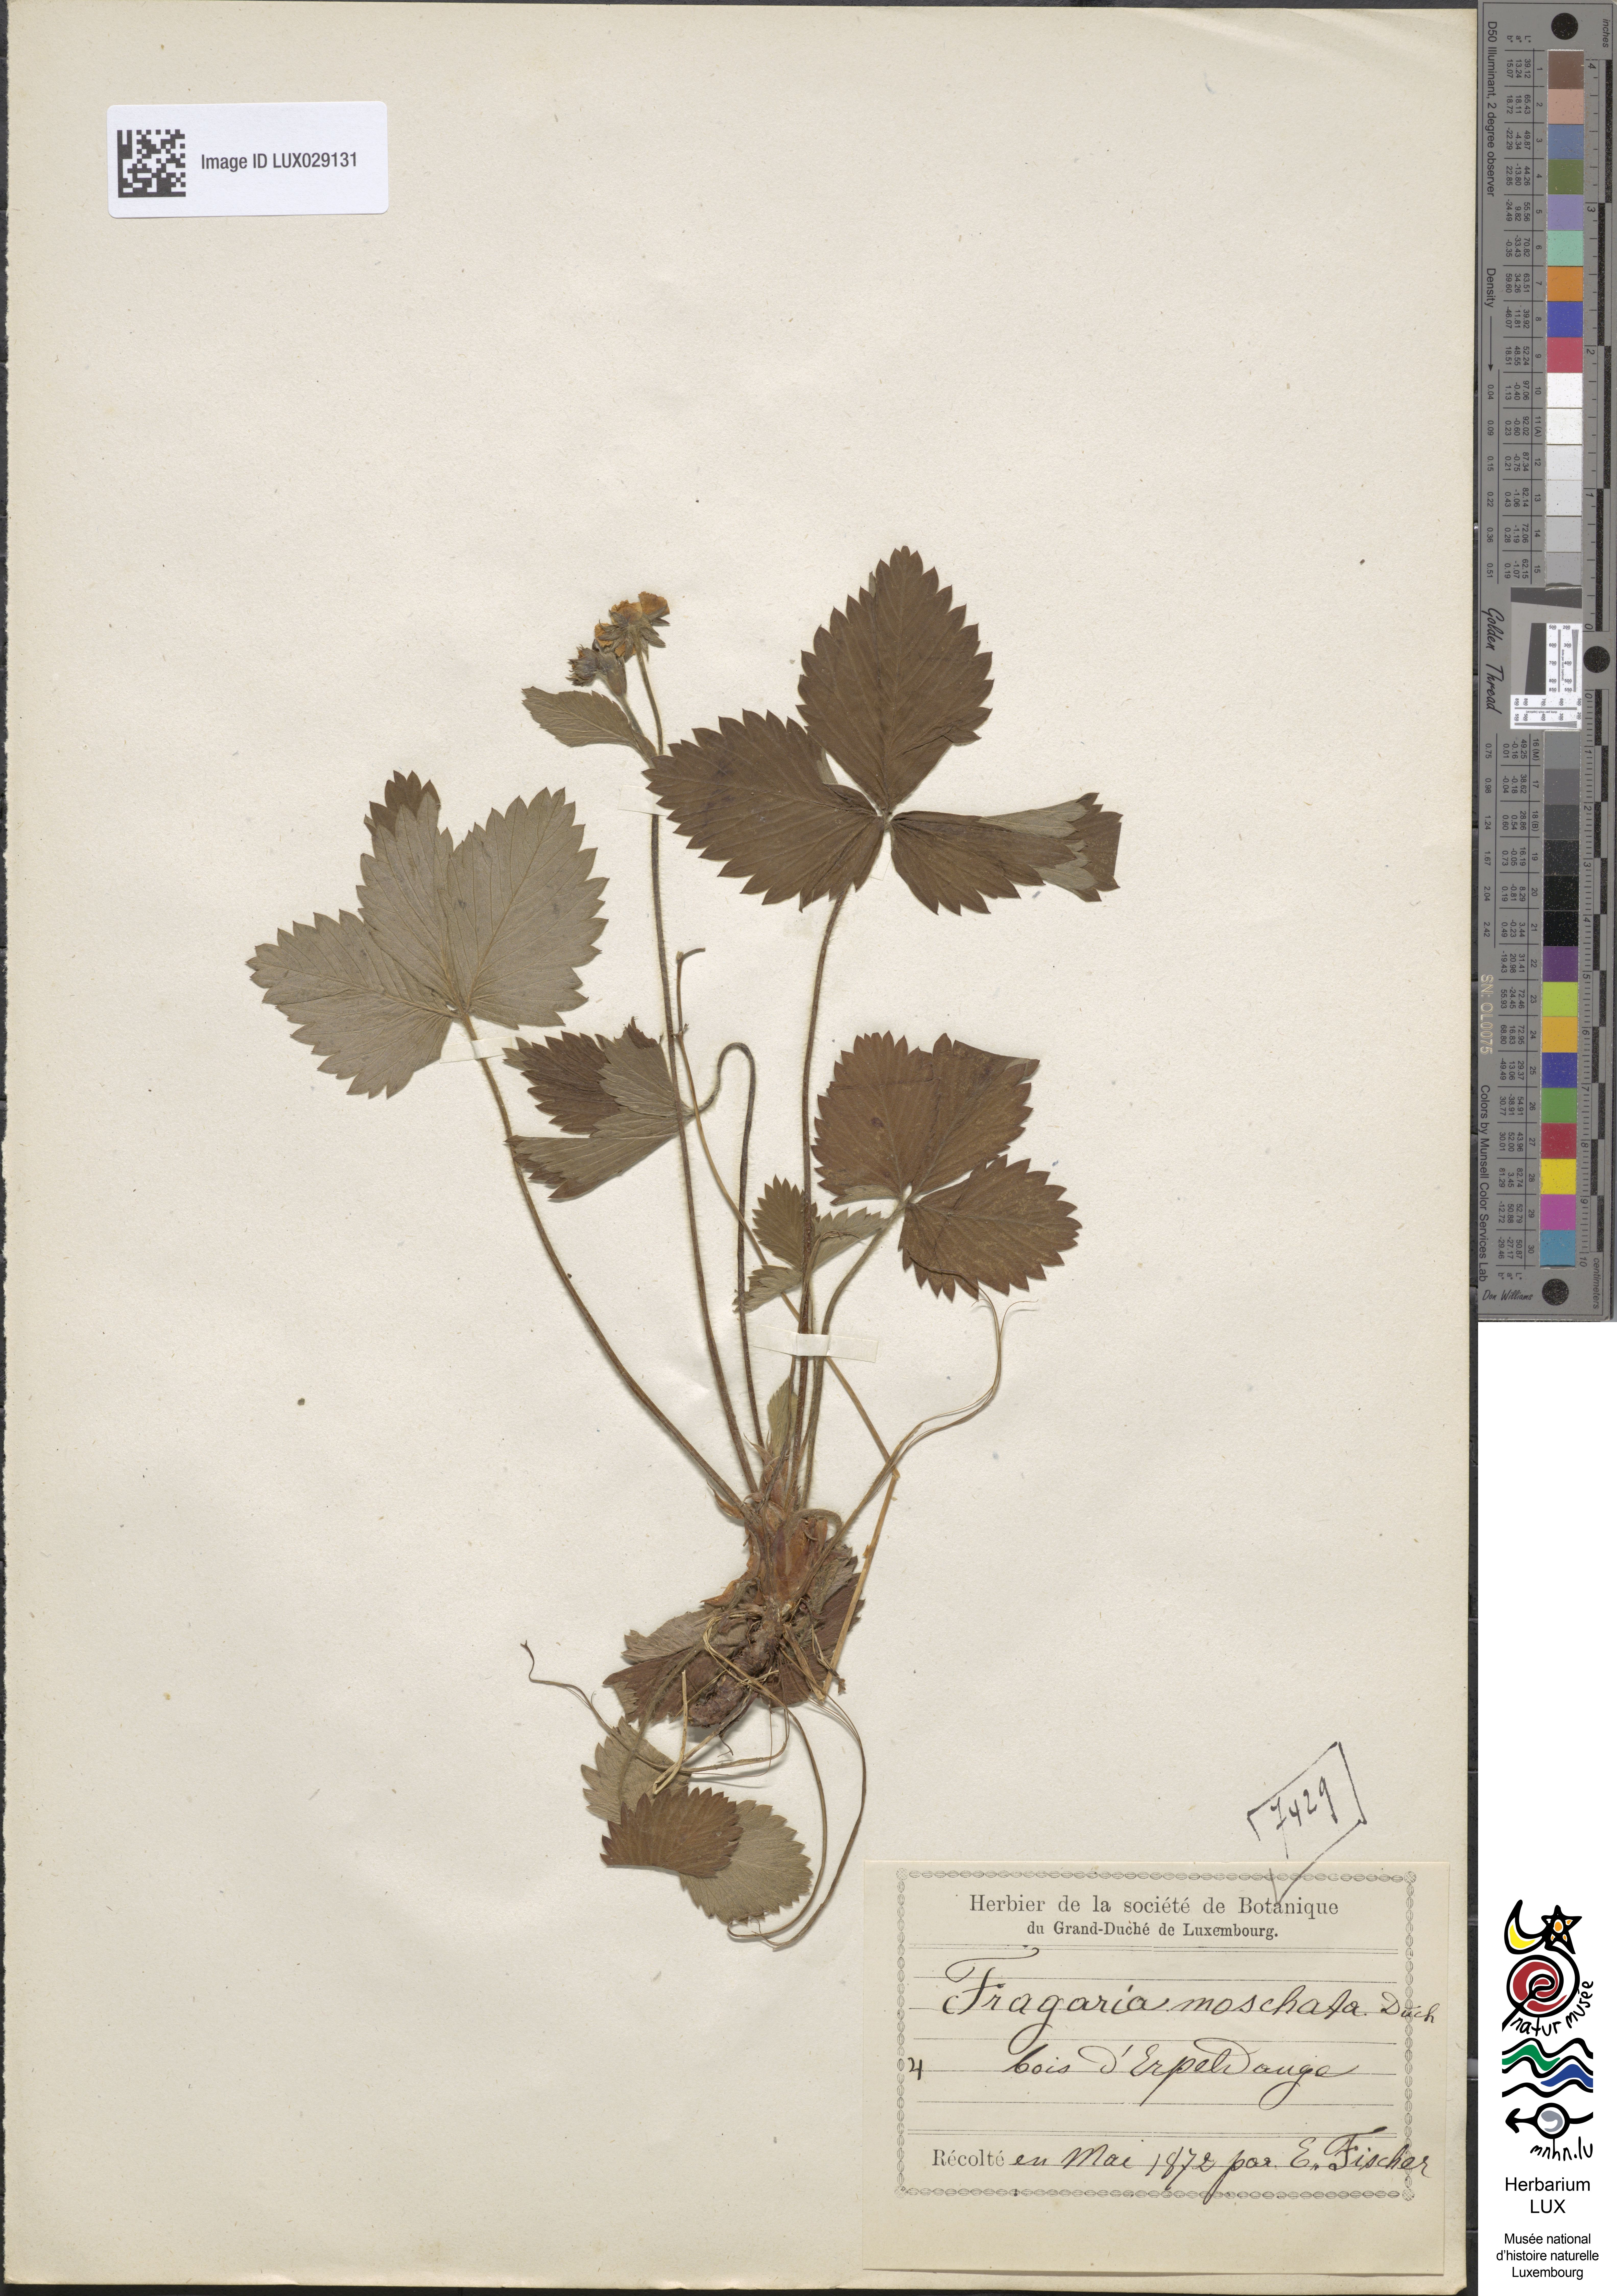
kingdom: Plantae
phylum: Tracheophyta
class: Magnoliopsida
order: Rosales
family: Rosaceae
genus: Fragaria
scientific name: Fragaria moschata
